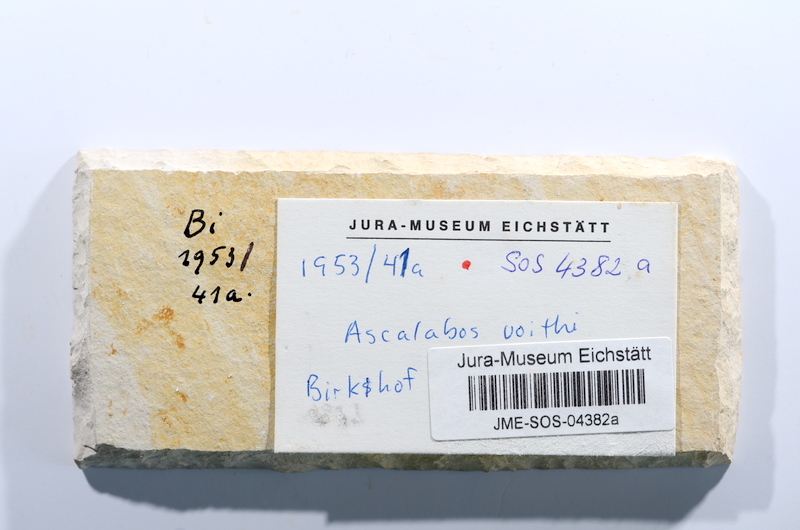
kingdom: Animalia
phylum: Chordata
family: Ascalaboidae
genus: Ascalabos
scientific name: Ascalabos voithii
